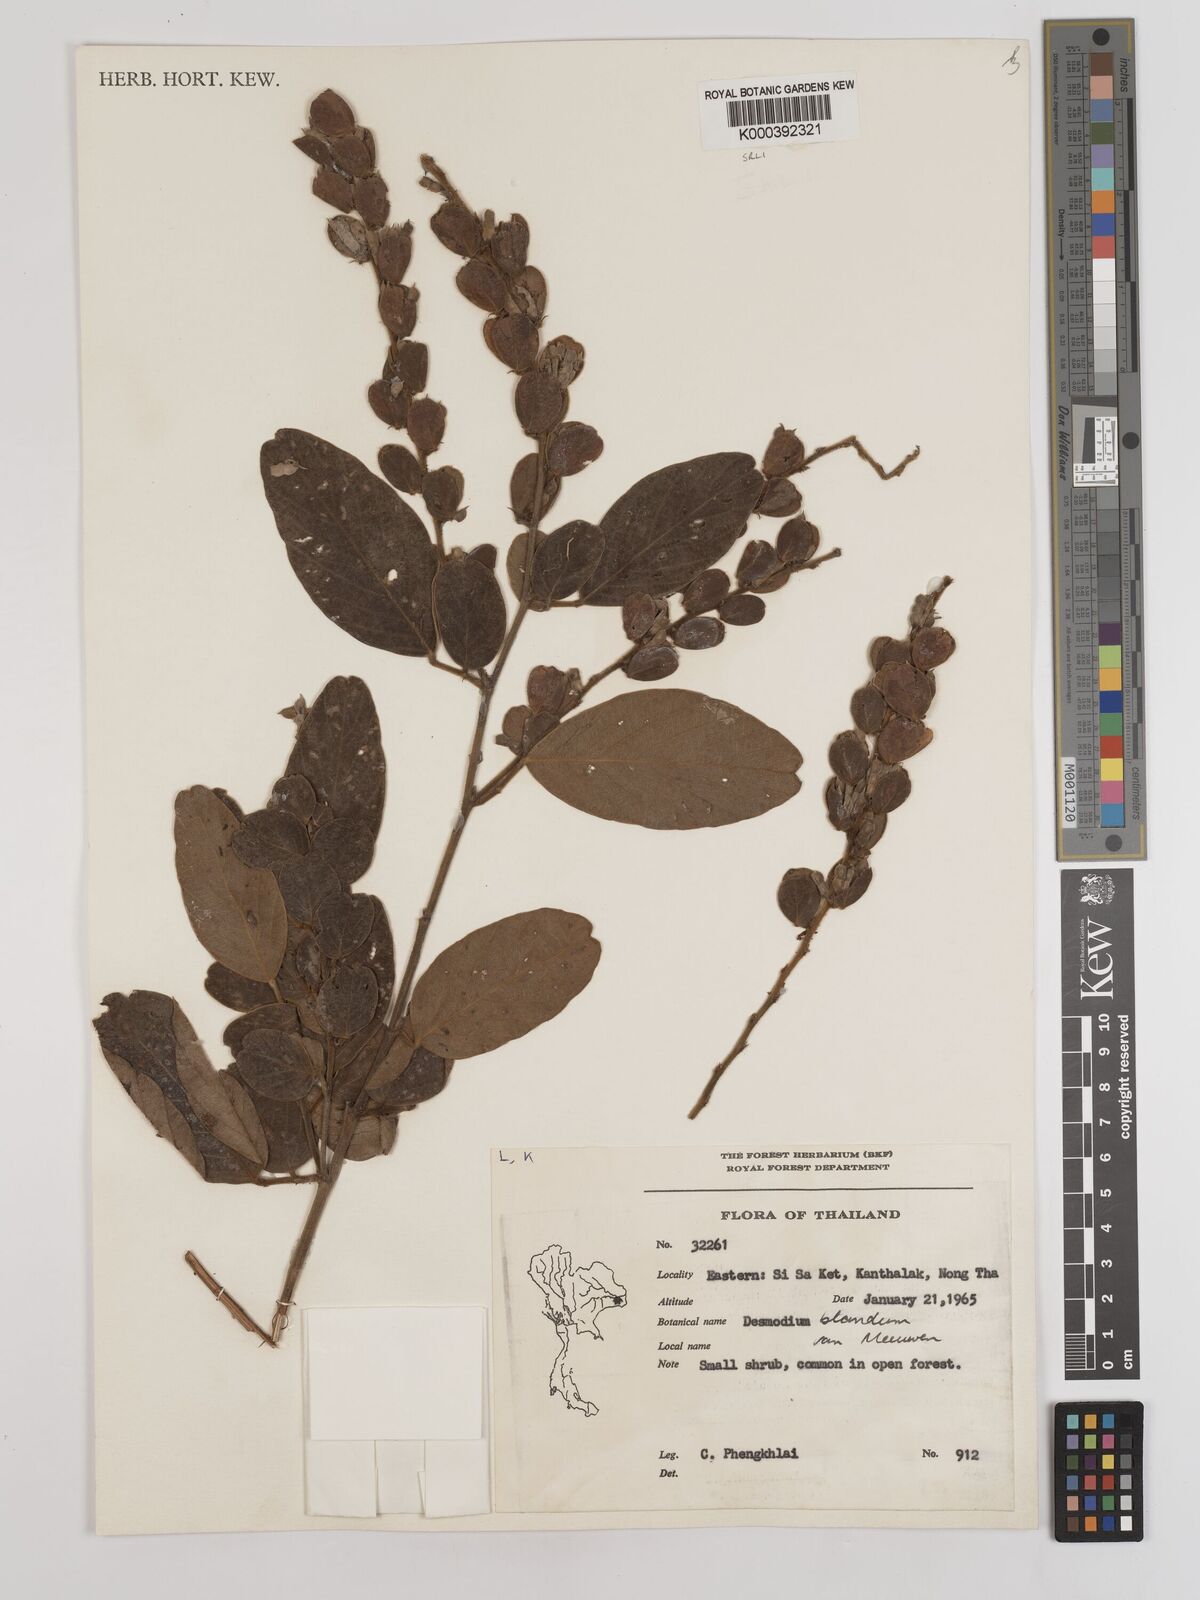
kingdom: Plantae
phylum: Tracheophyta
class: Magnoliopsida
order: Fabales
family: Fabaceae
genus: Phyllodium
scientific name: Phyllodium elegans
